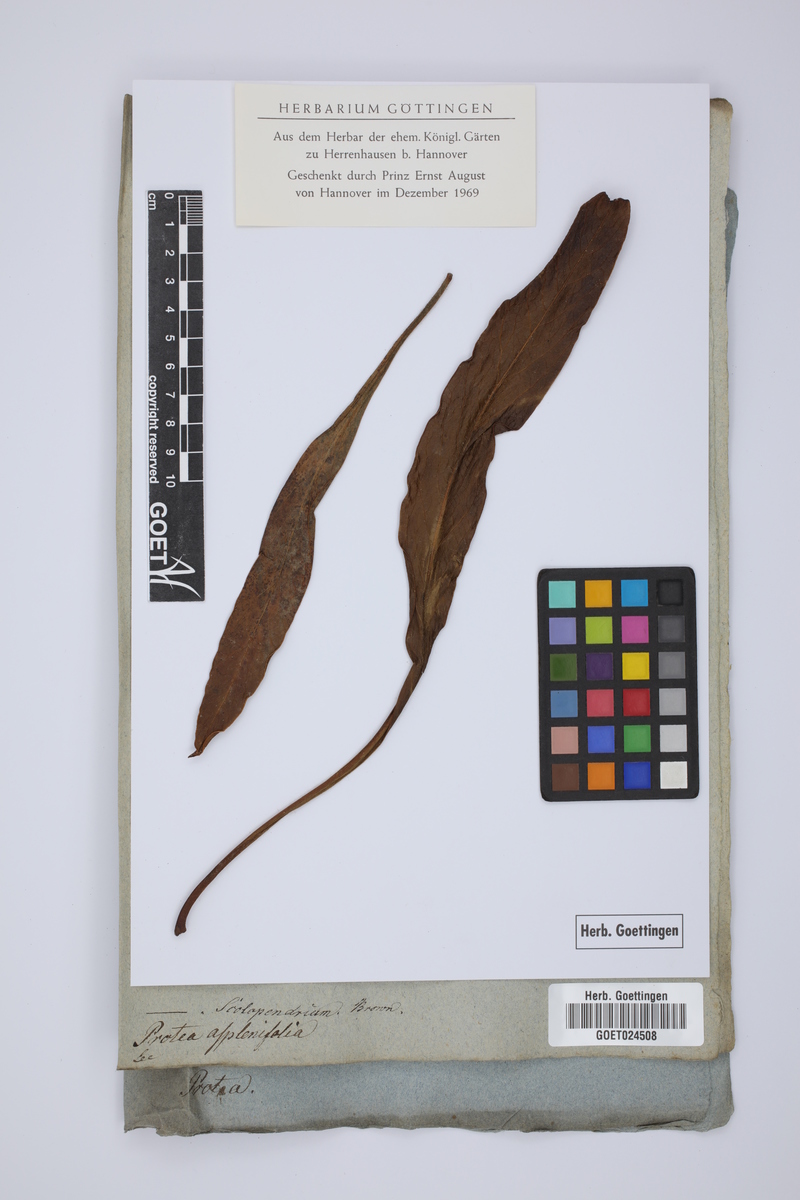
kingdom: Plantae
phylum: Tracheophyta
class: Magnoliopsida
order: Proteales
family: Proteaceae
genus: Protea
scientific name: Protea scolopendriifolia
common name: Harts-tongue-fern sugarbush
